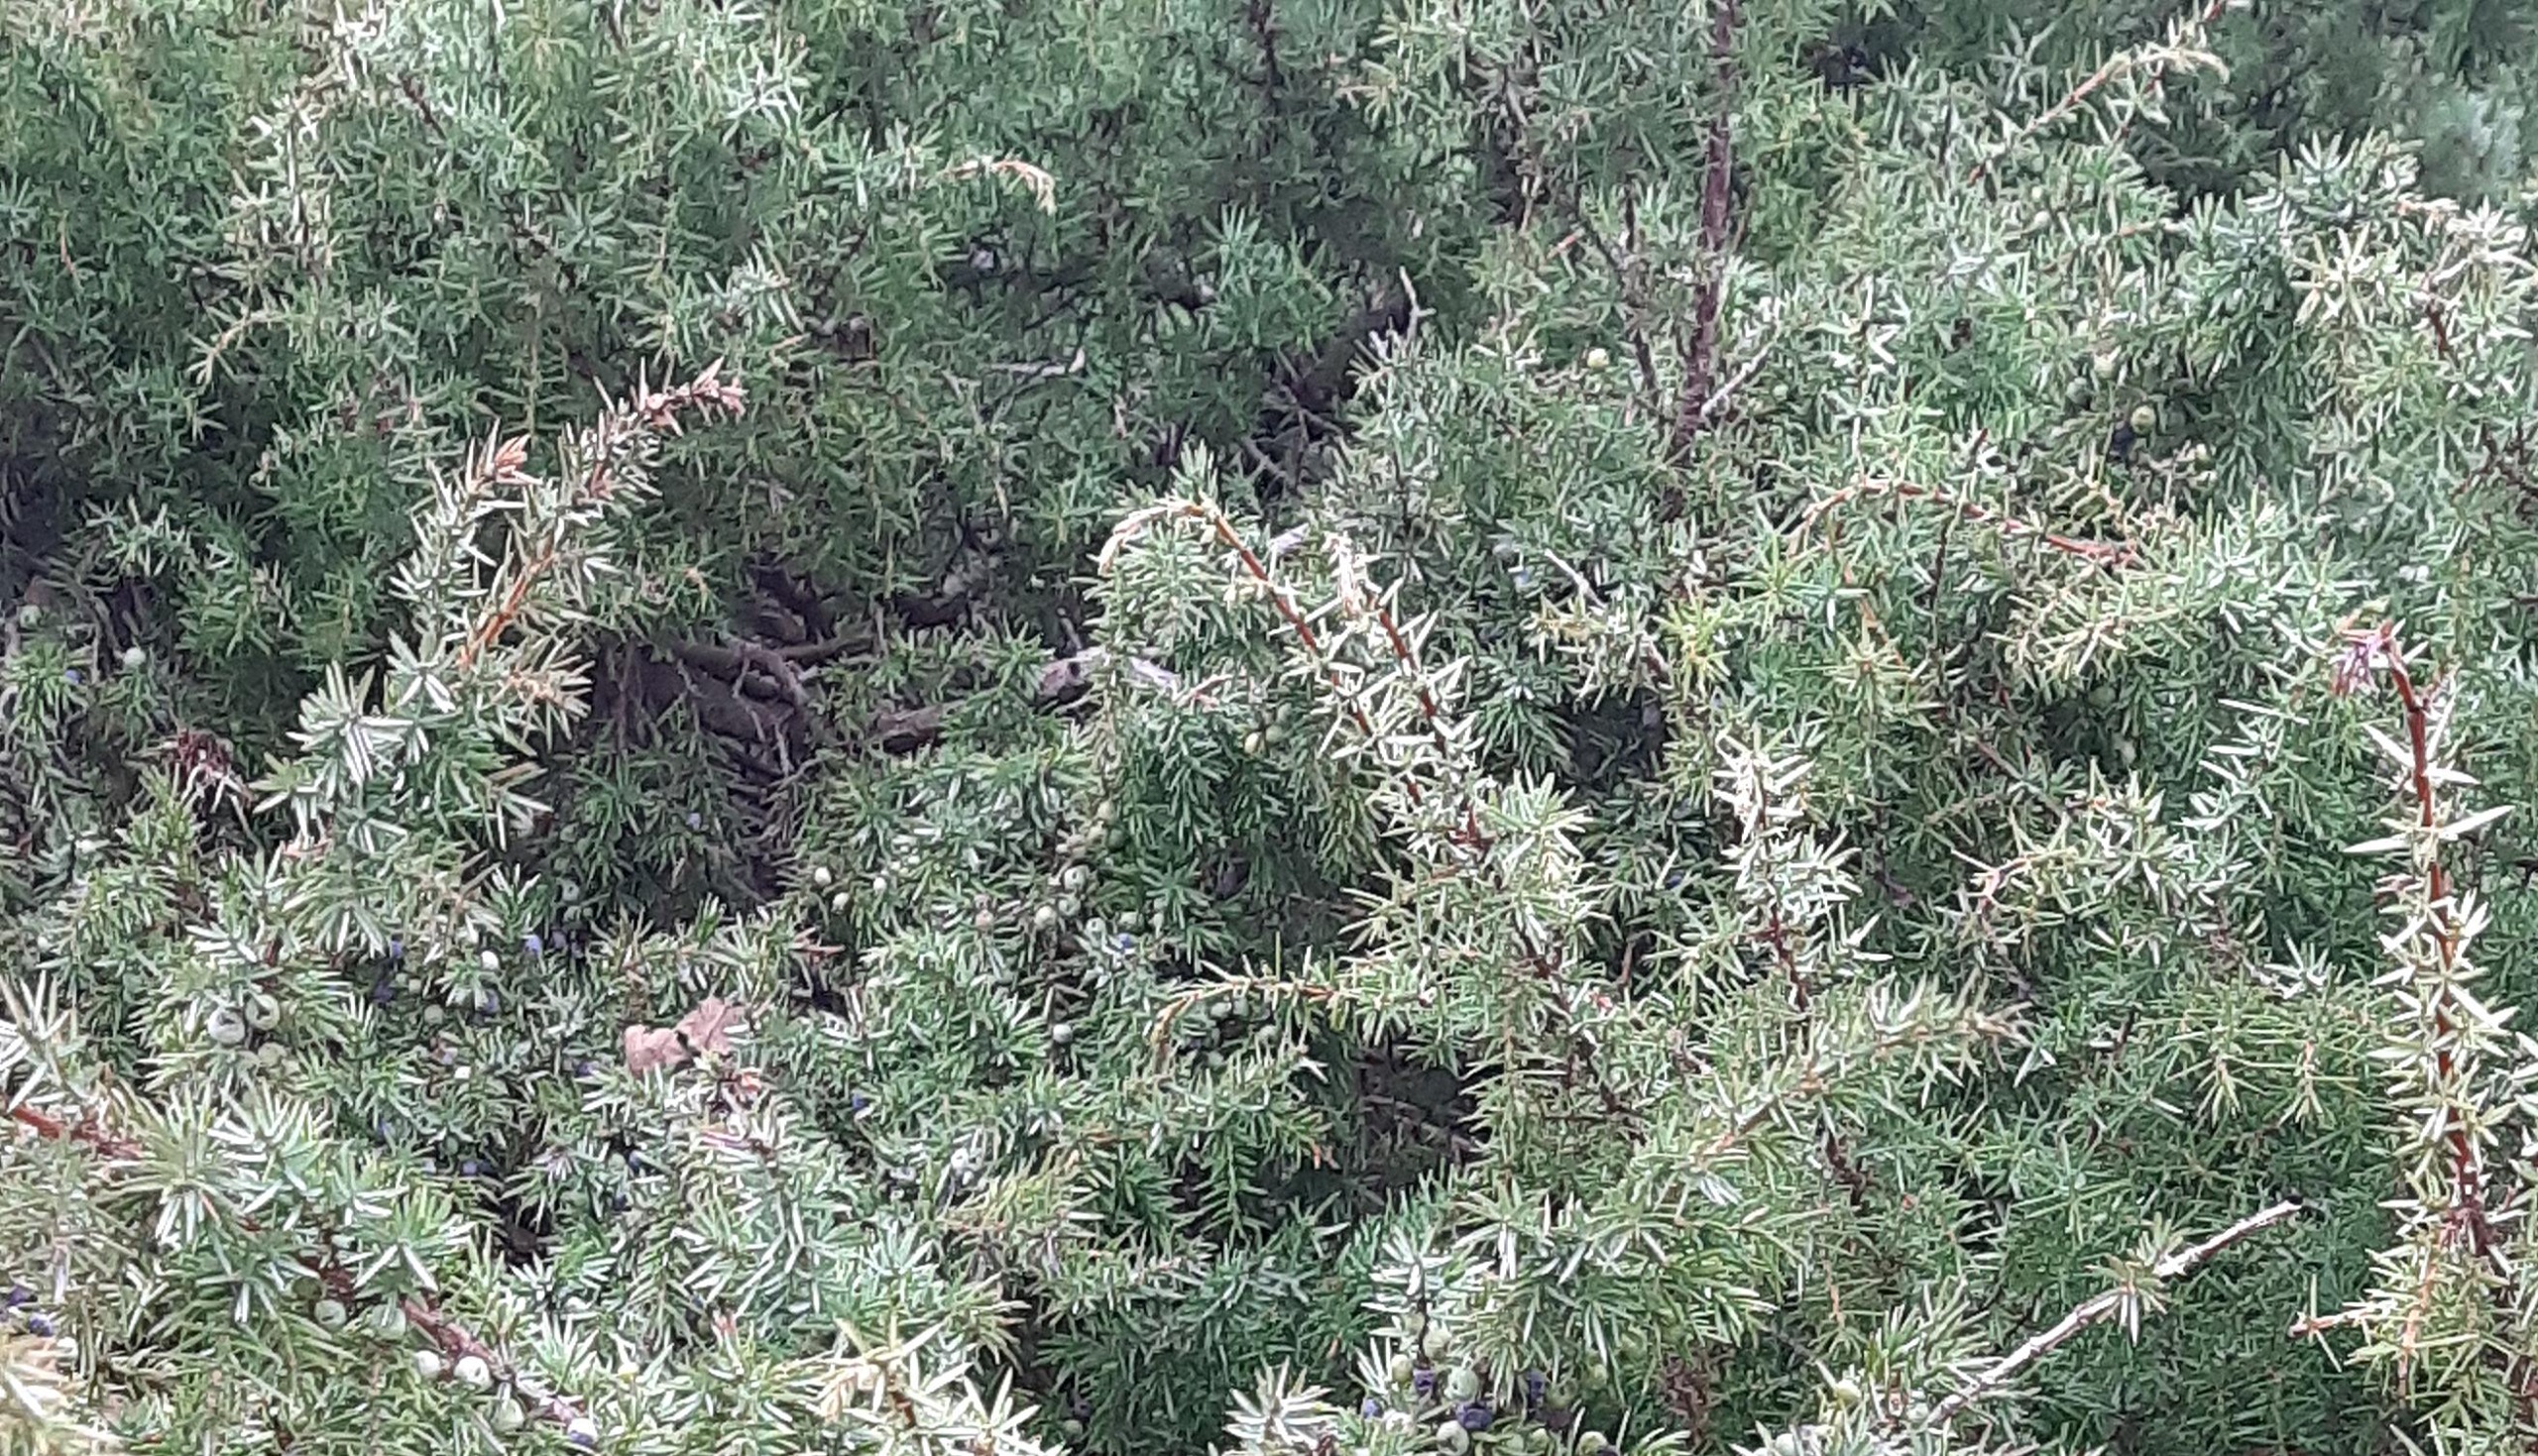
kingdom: Plantae
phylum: Tracheophyta
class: Pinopsida
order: Pinales
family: Cupressaceae
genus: Juniperus
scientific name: Juniperus communis
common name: Almindelig ene
